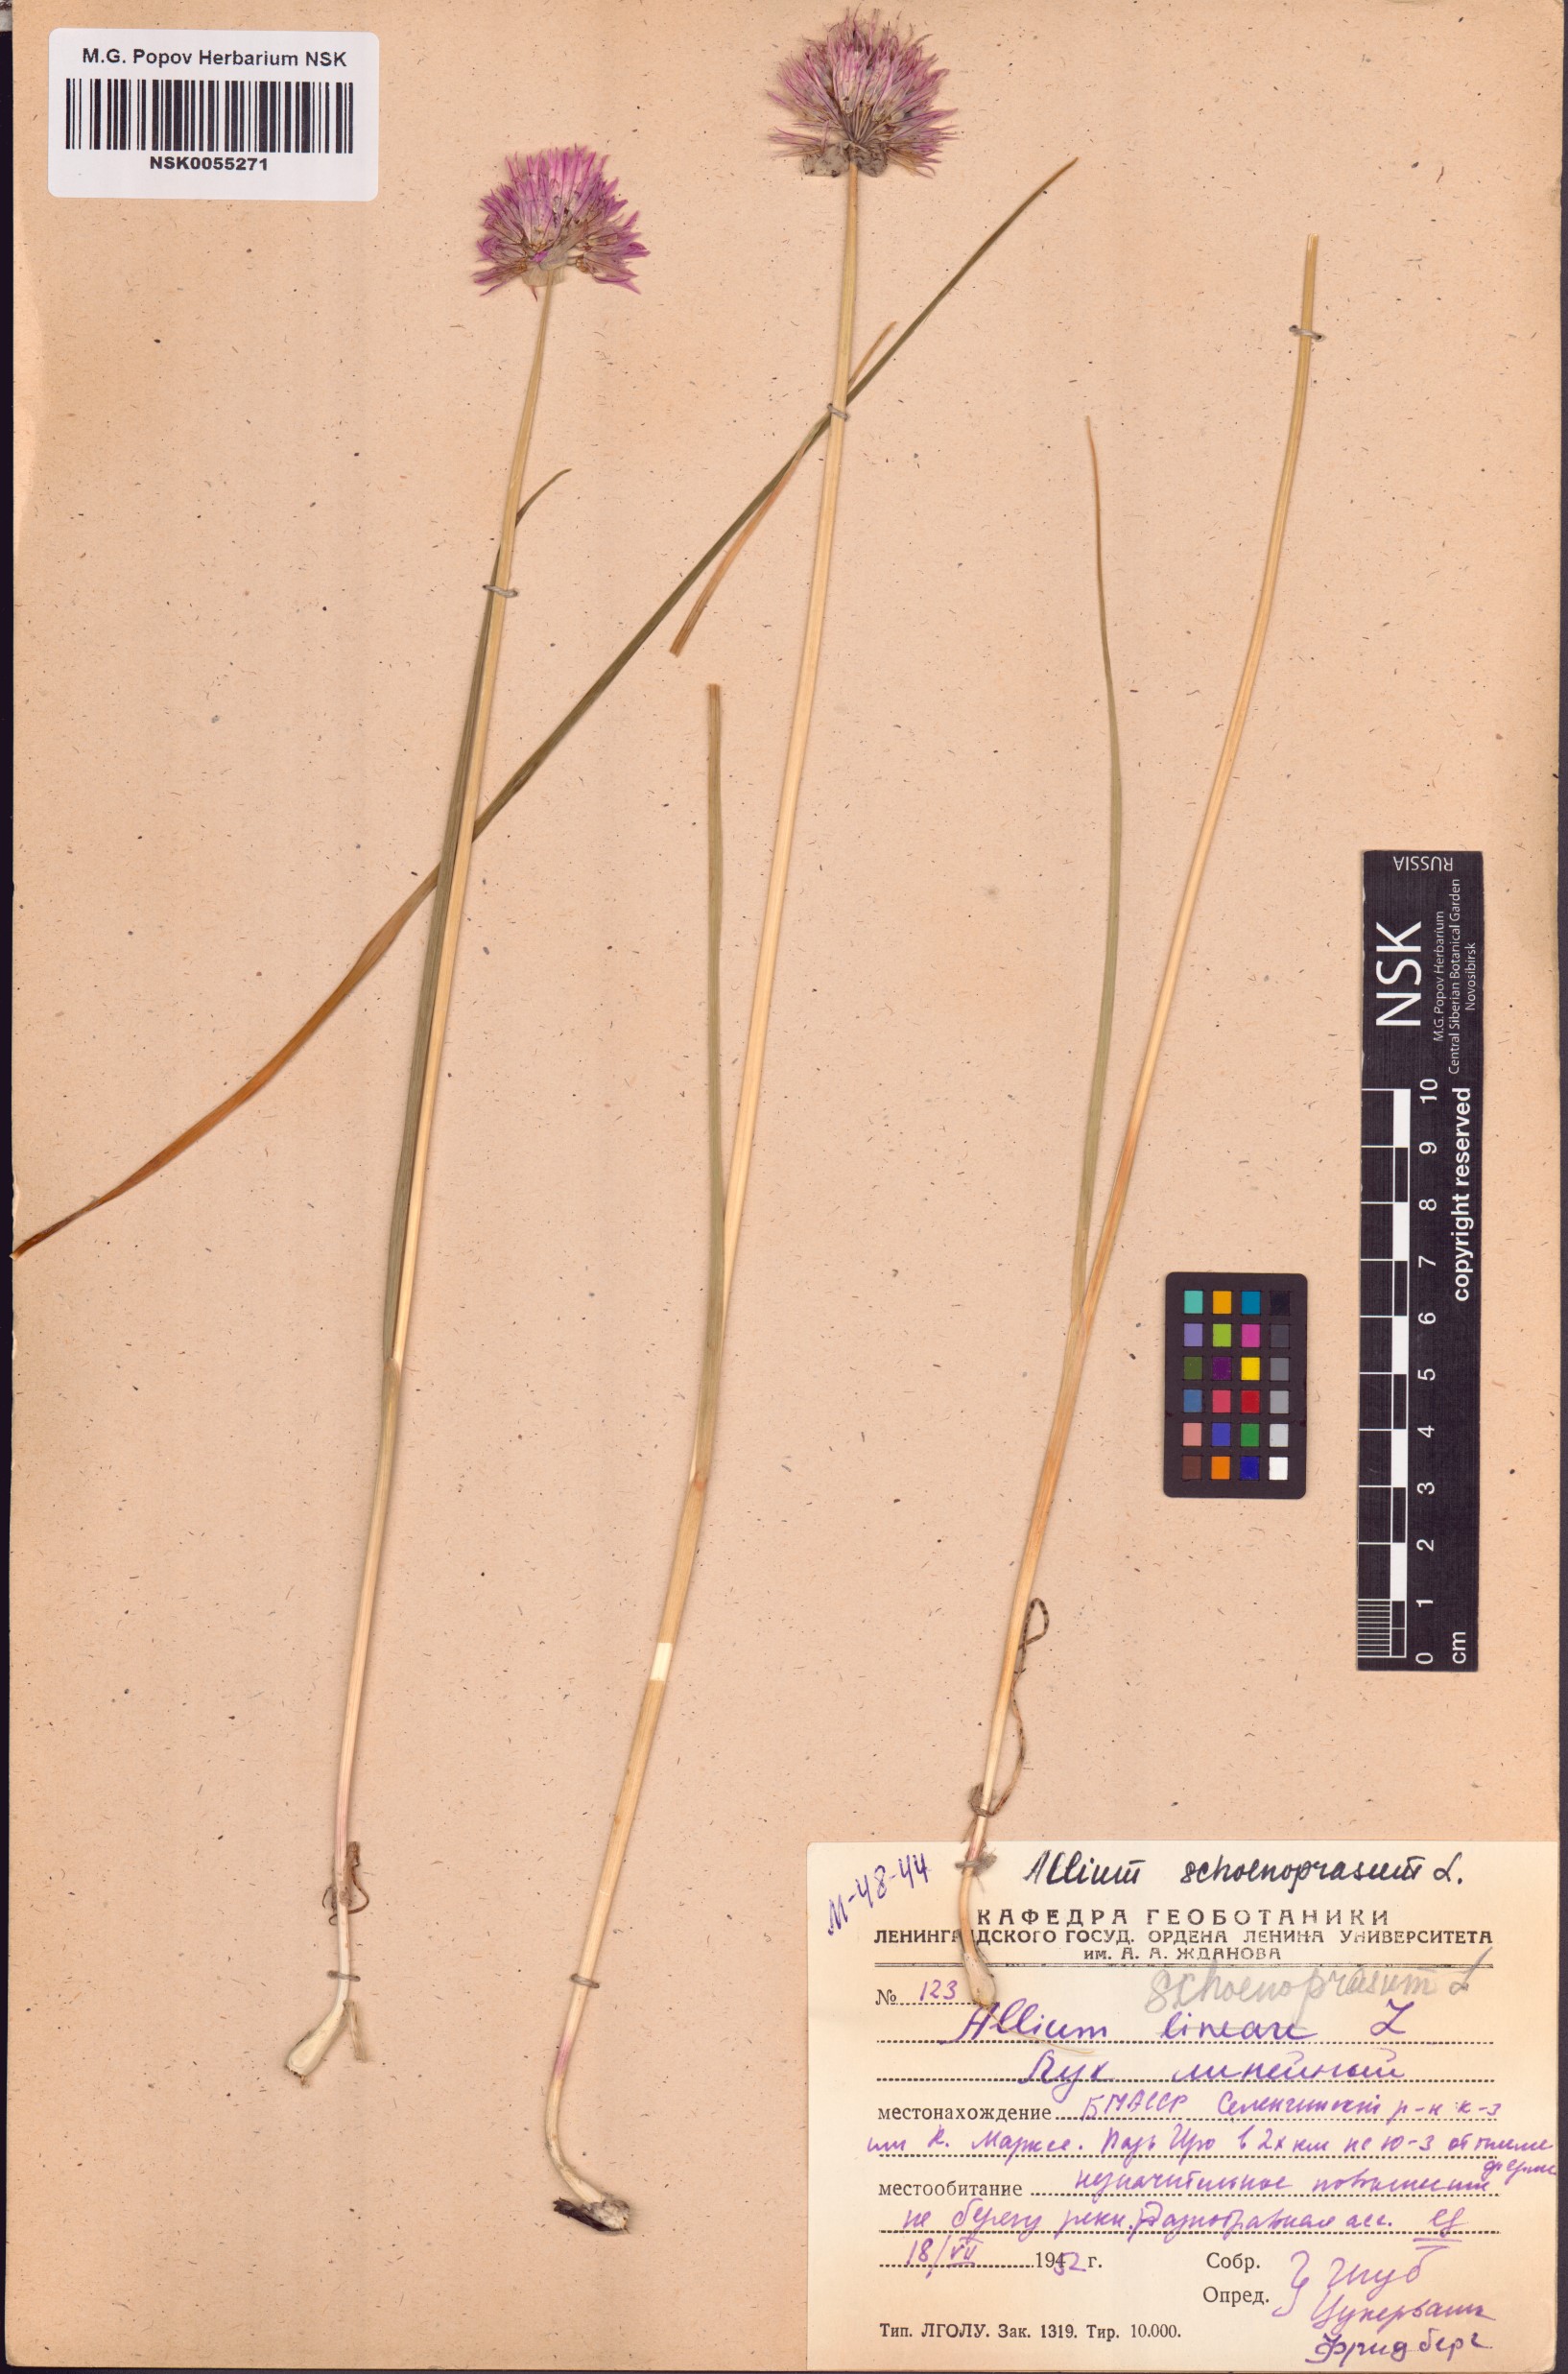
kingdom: Plantae
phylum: Tracheophyta
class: Liliopsida
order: Asparagales
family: Amaryllidaceae
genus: Allium
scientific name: Allium schoenoprasum
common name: Chives
